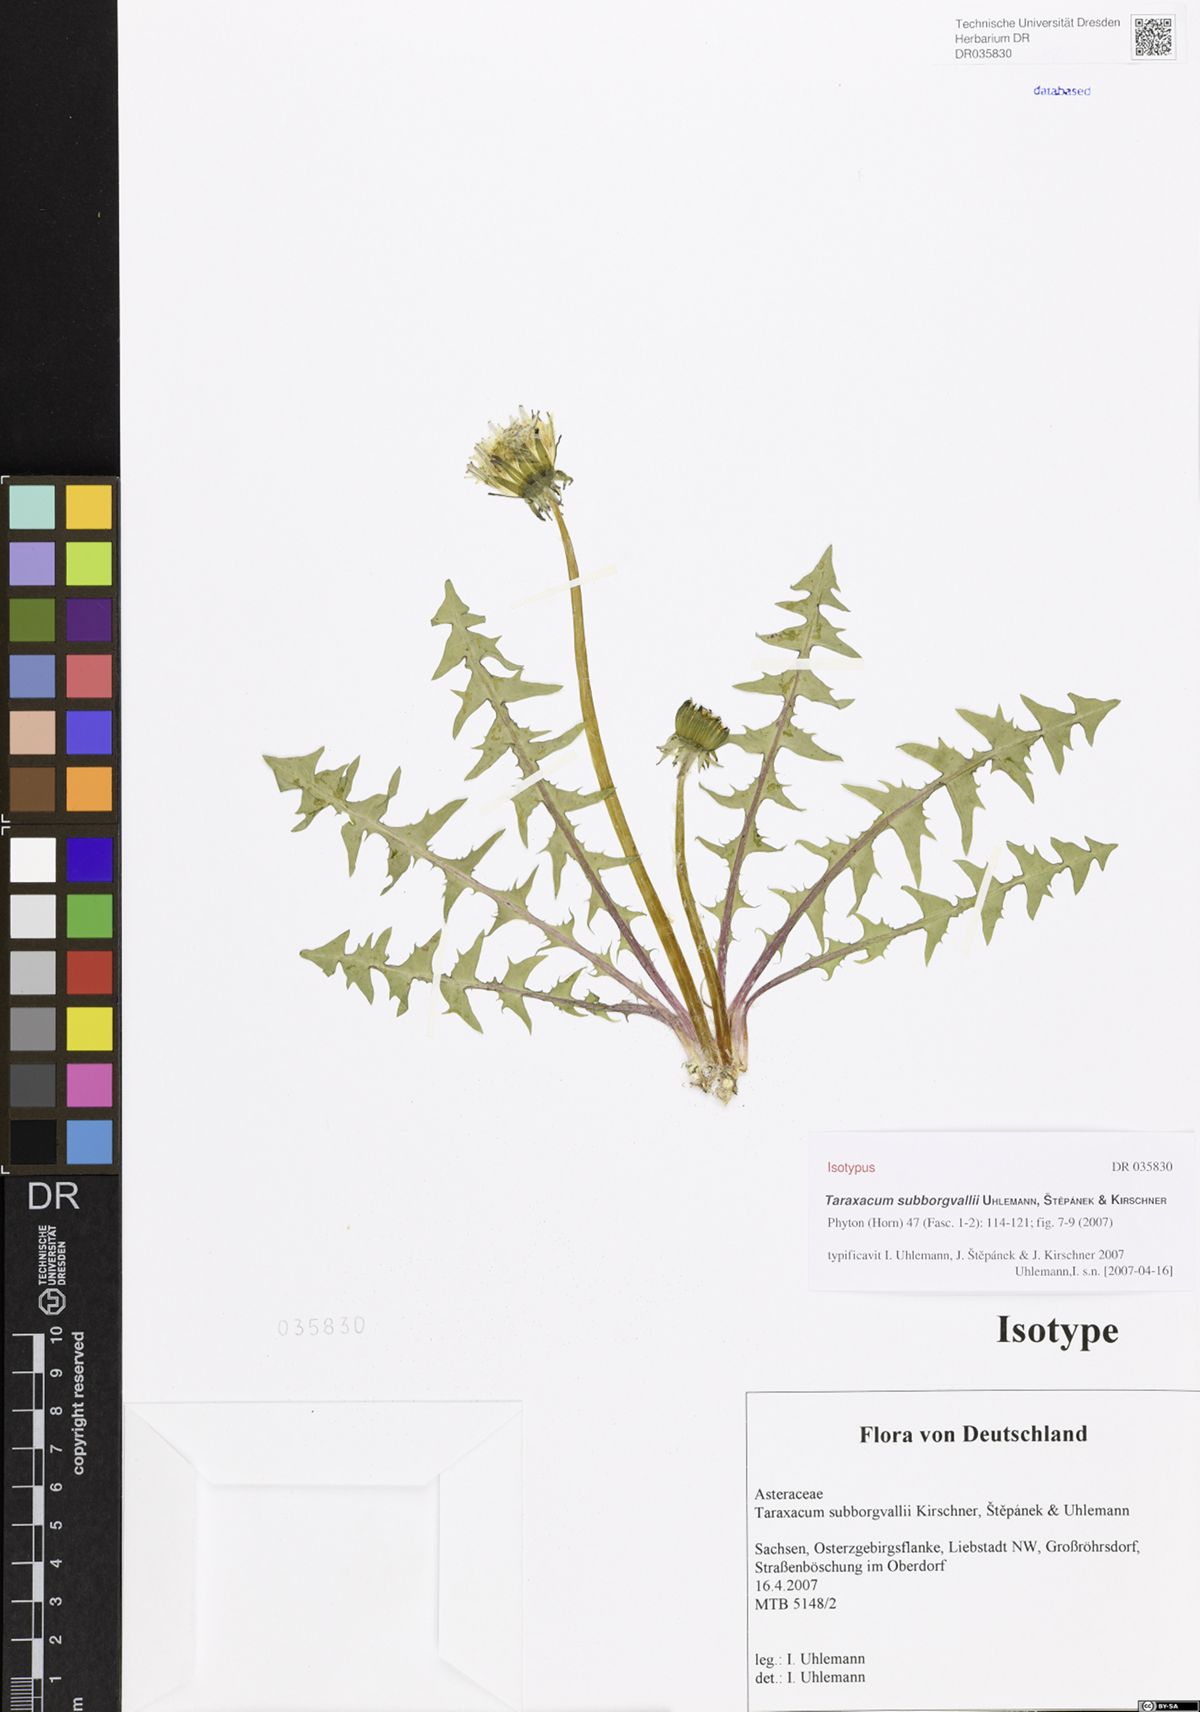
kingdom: Plantae
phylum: Tracheophyta
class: Magnoliopsida
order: Asterales
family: Asteraceae
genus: Taraxacum
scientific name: Taraxacum subborgvallii
